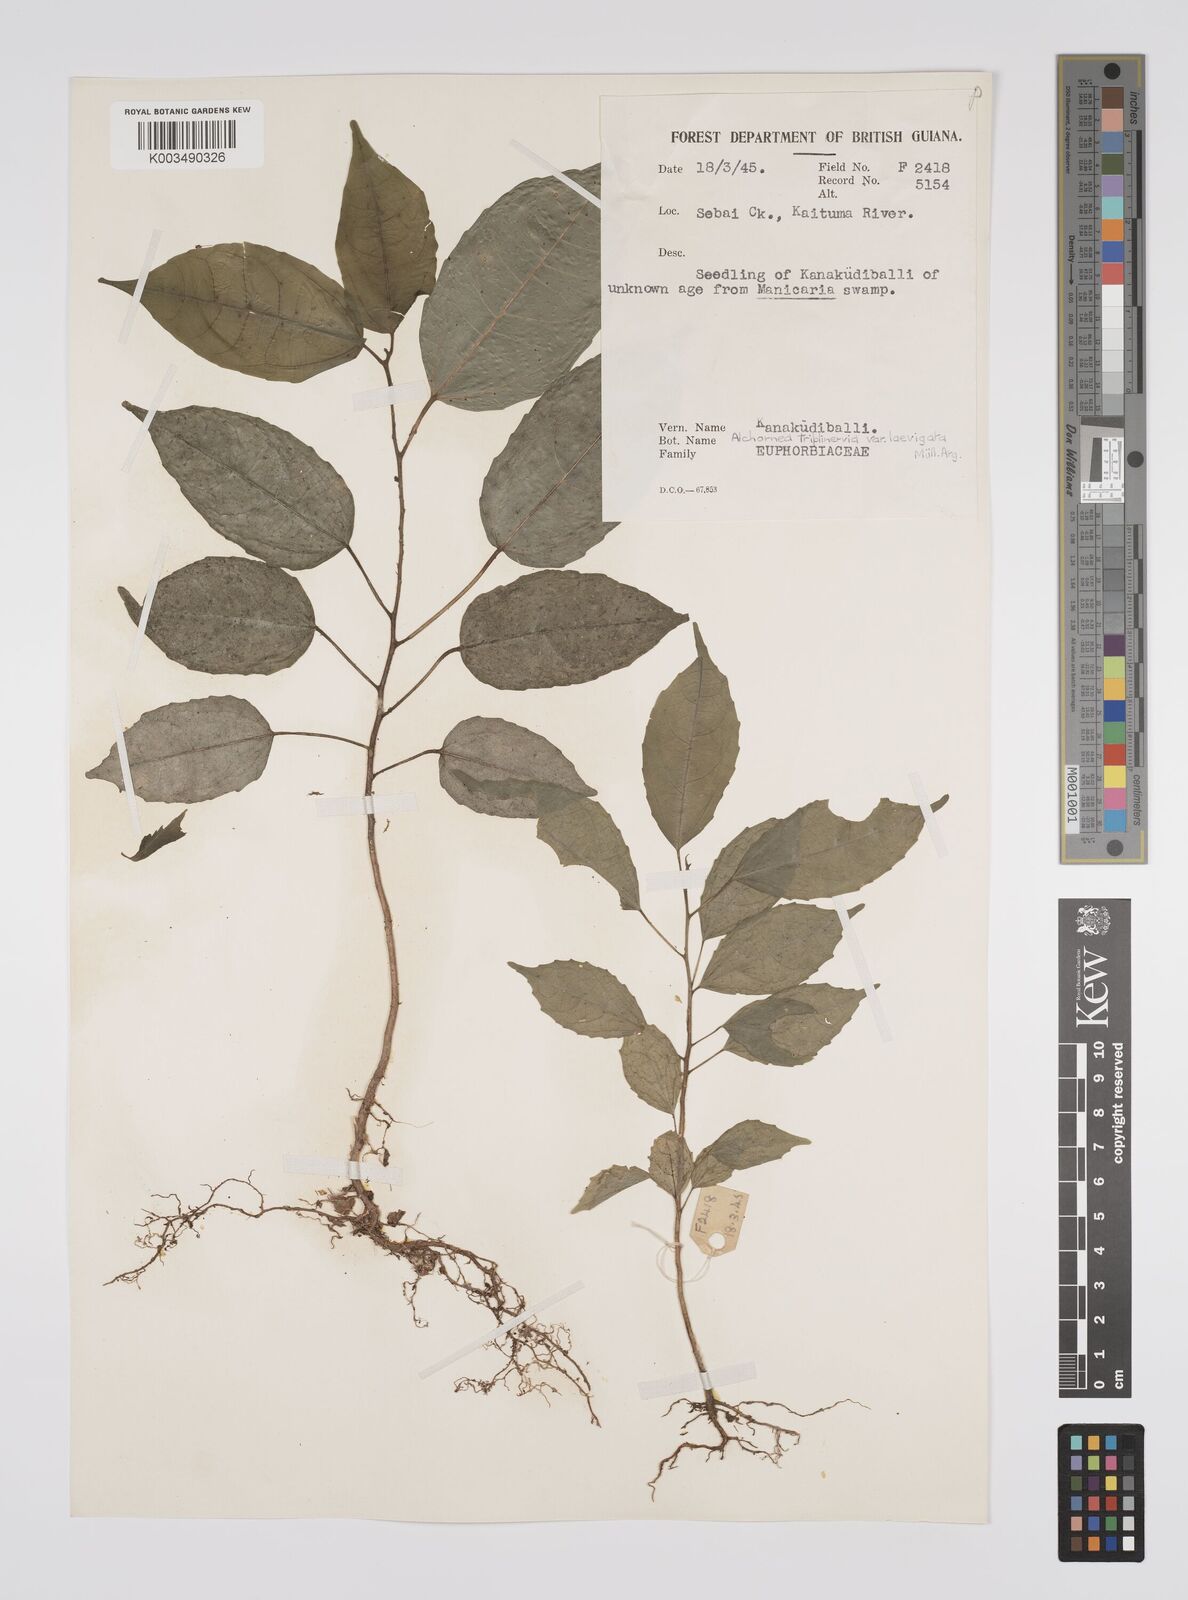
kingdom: Plantae
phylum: Tracheophyta
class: Magnoliopsida
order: Malpighiales
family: Euphorbiaceae
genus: Alchornea
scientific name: Alchornea triplinervia
